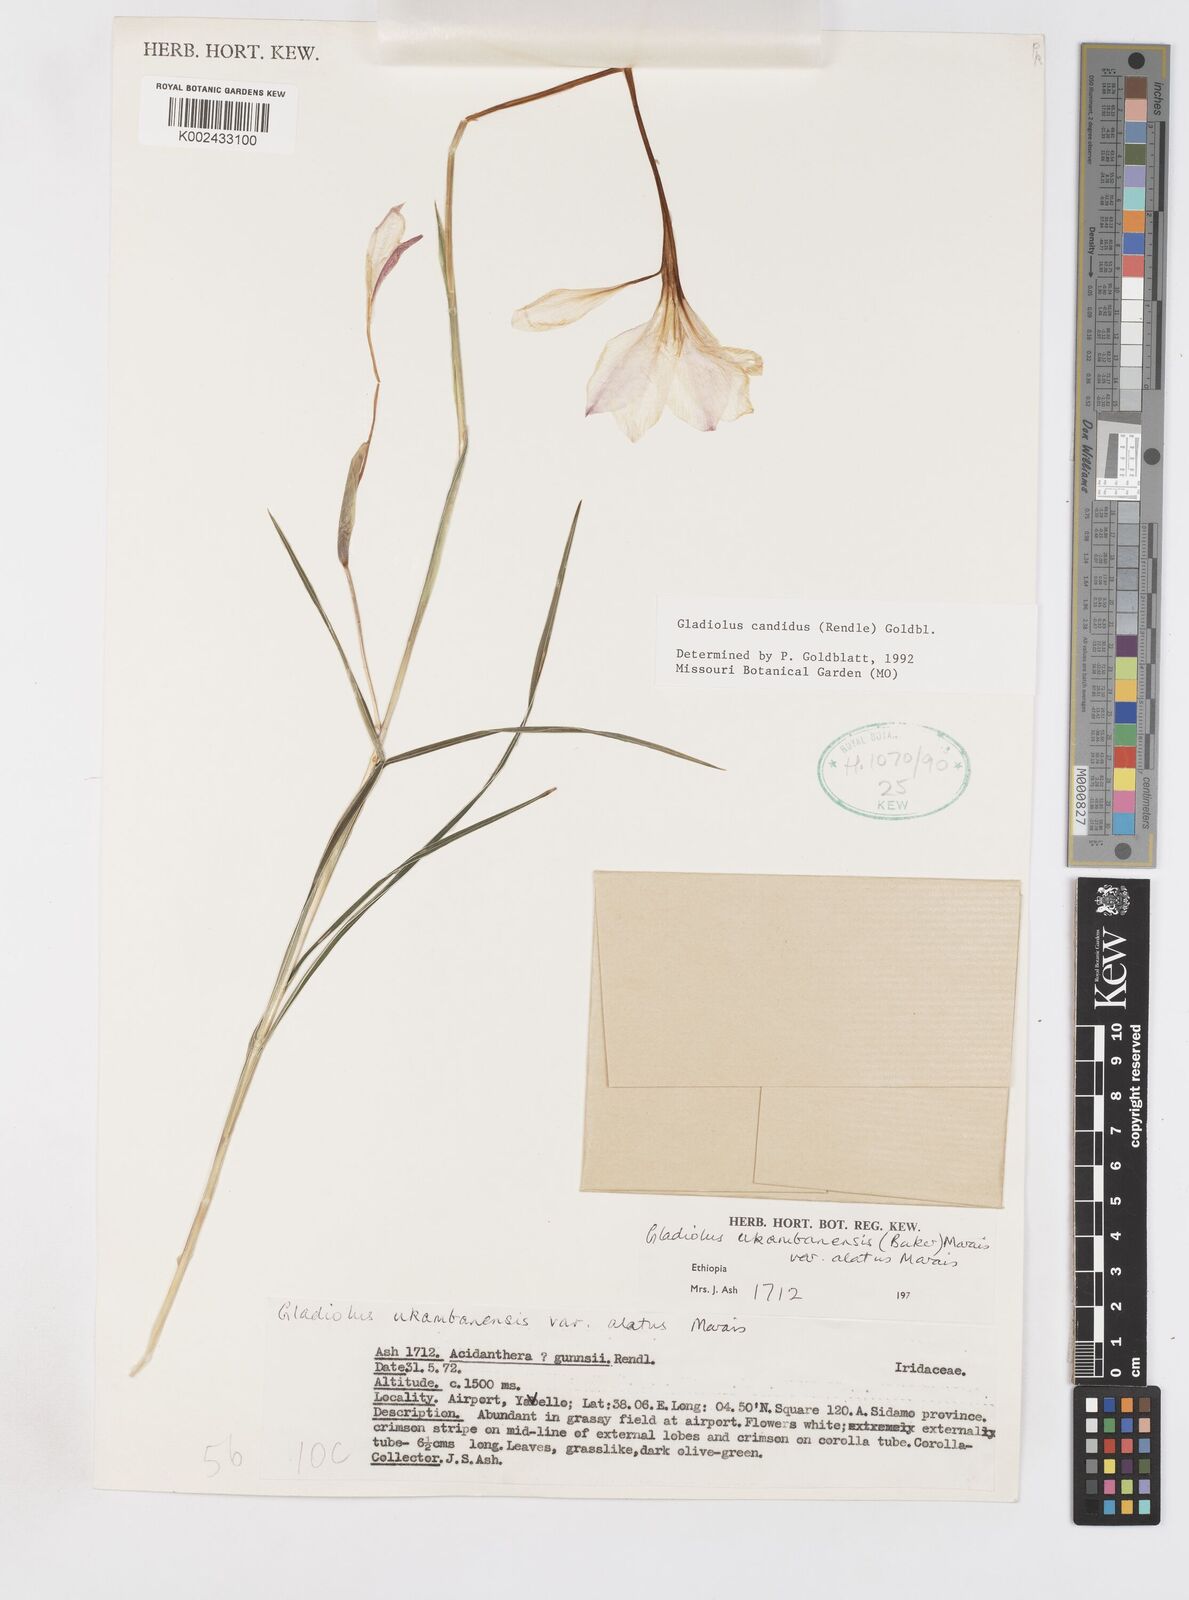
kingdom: Plantae
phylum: Tracheophyta
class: Liliopsida
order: Asparagales
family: Iridaceae
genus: Gladiolus
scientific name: Gladiolus candidus
